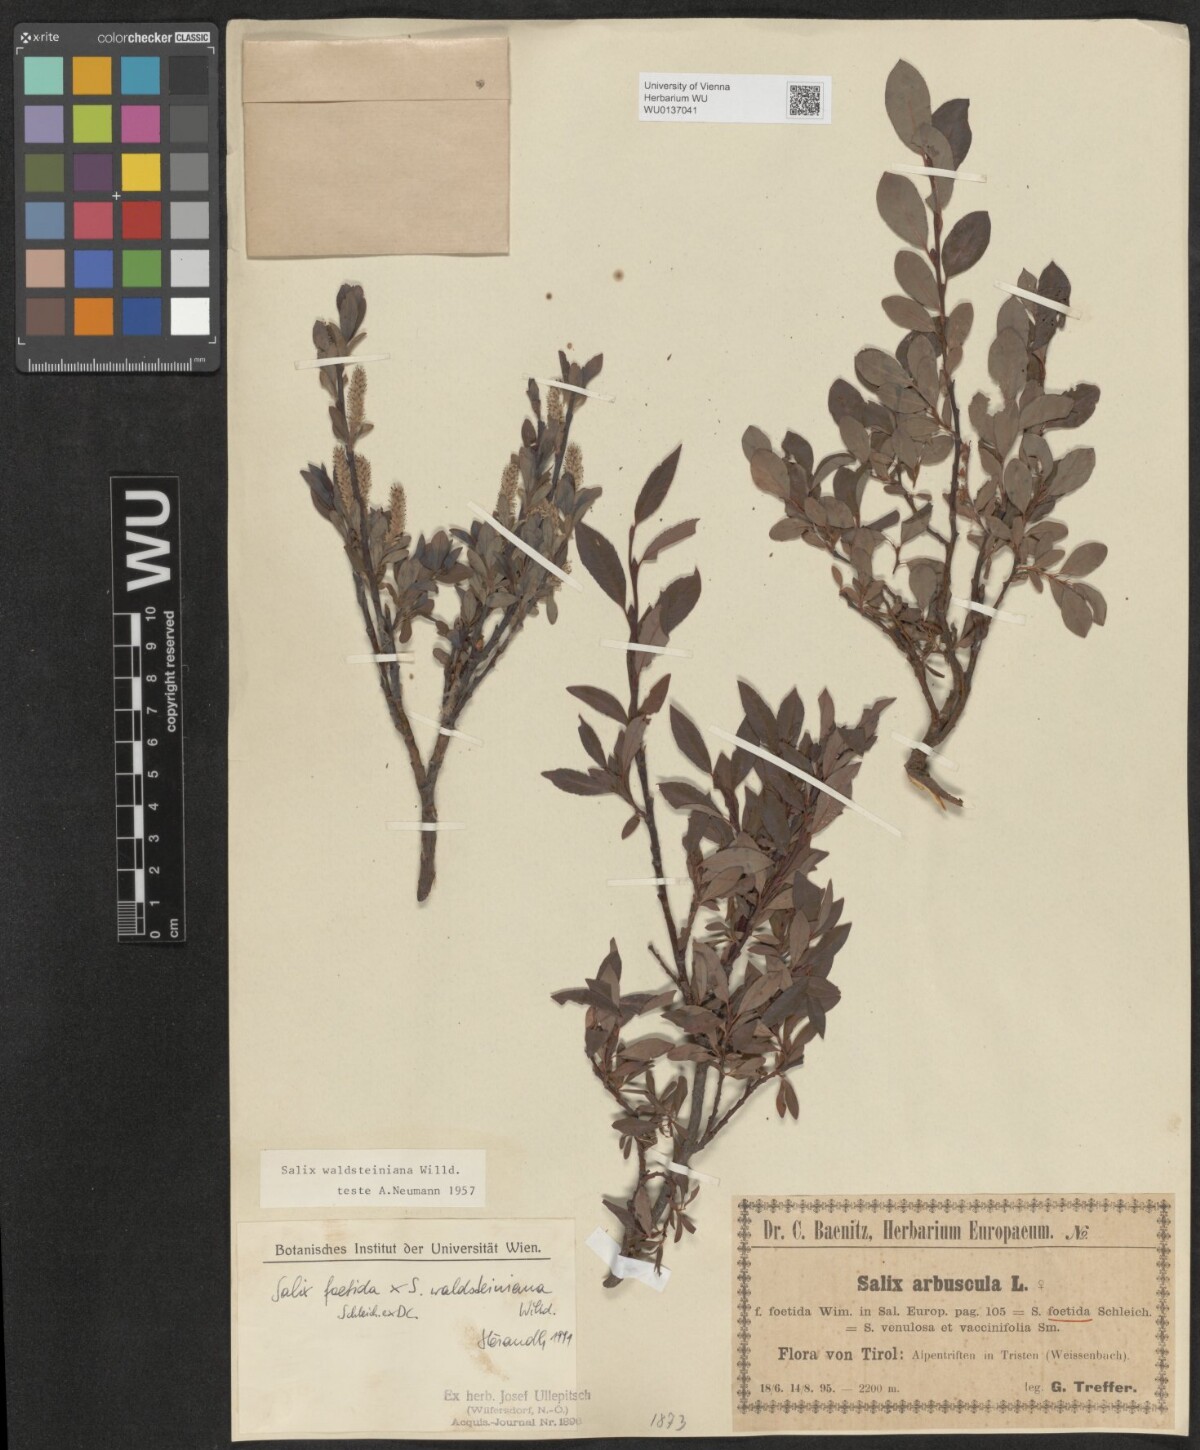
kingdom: Plantae
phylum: Tracheophyta
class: Magnoliopsida
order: Malpighiales
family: Salicaceae
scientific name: Salicaceae
